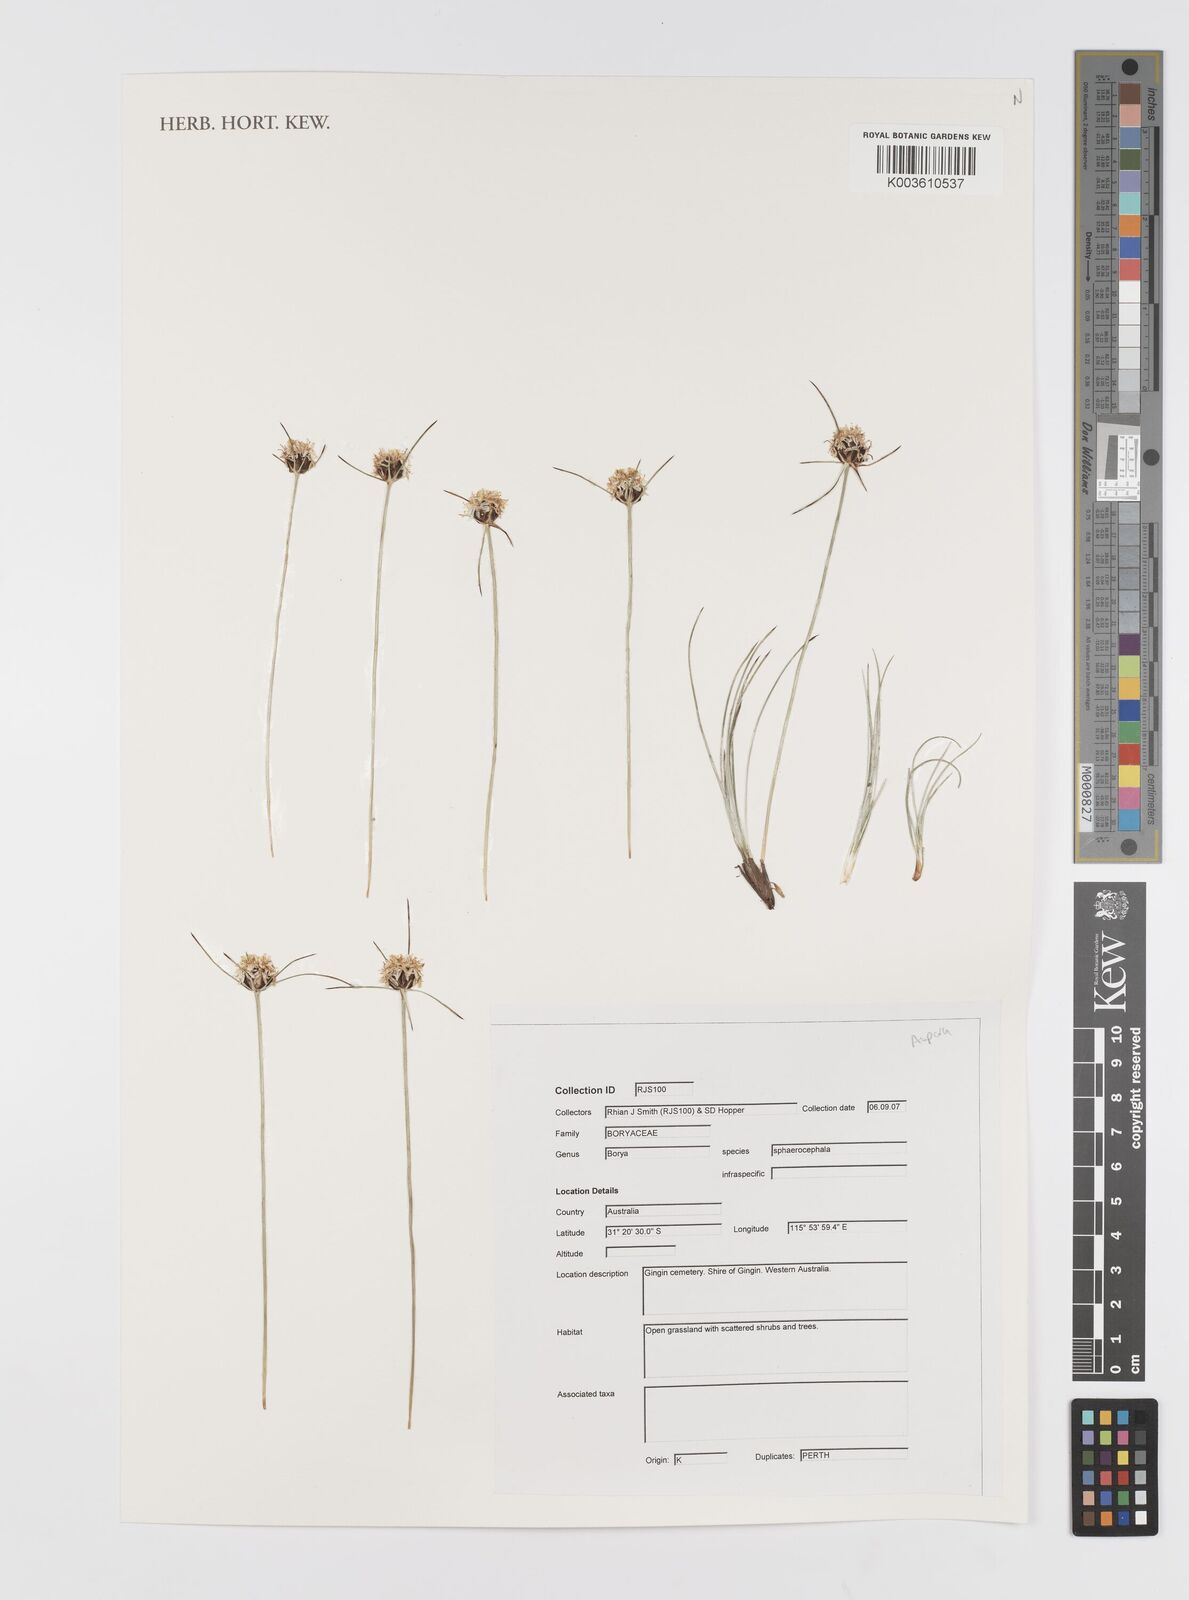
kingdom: Plantae
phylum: Tracheophyta
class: Liliopsida
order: Asparagales
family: Boryaceae
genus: Borya
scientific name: Borya sphaerocephala
